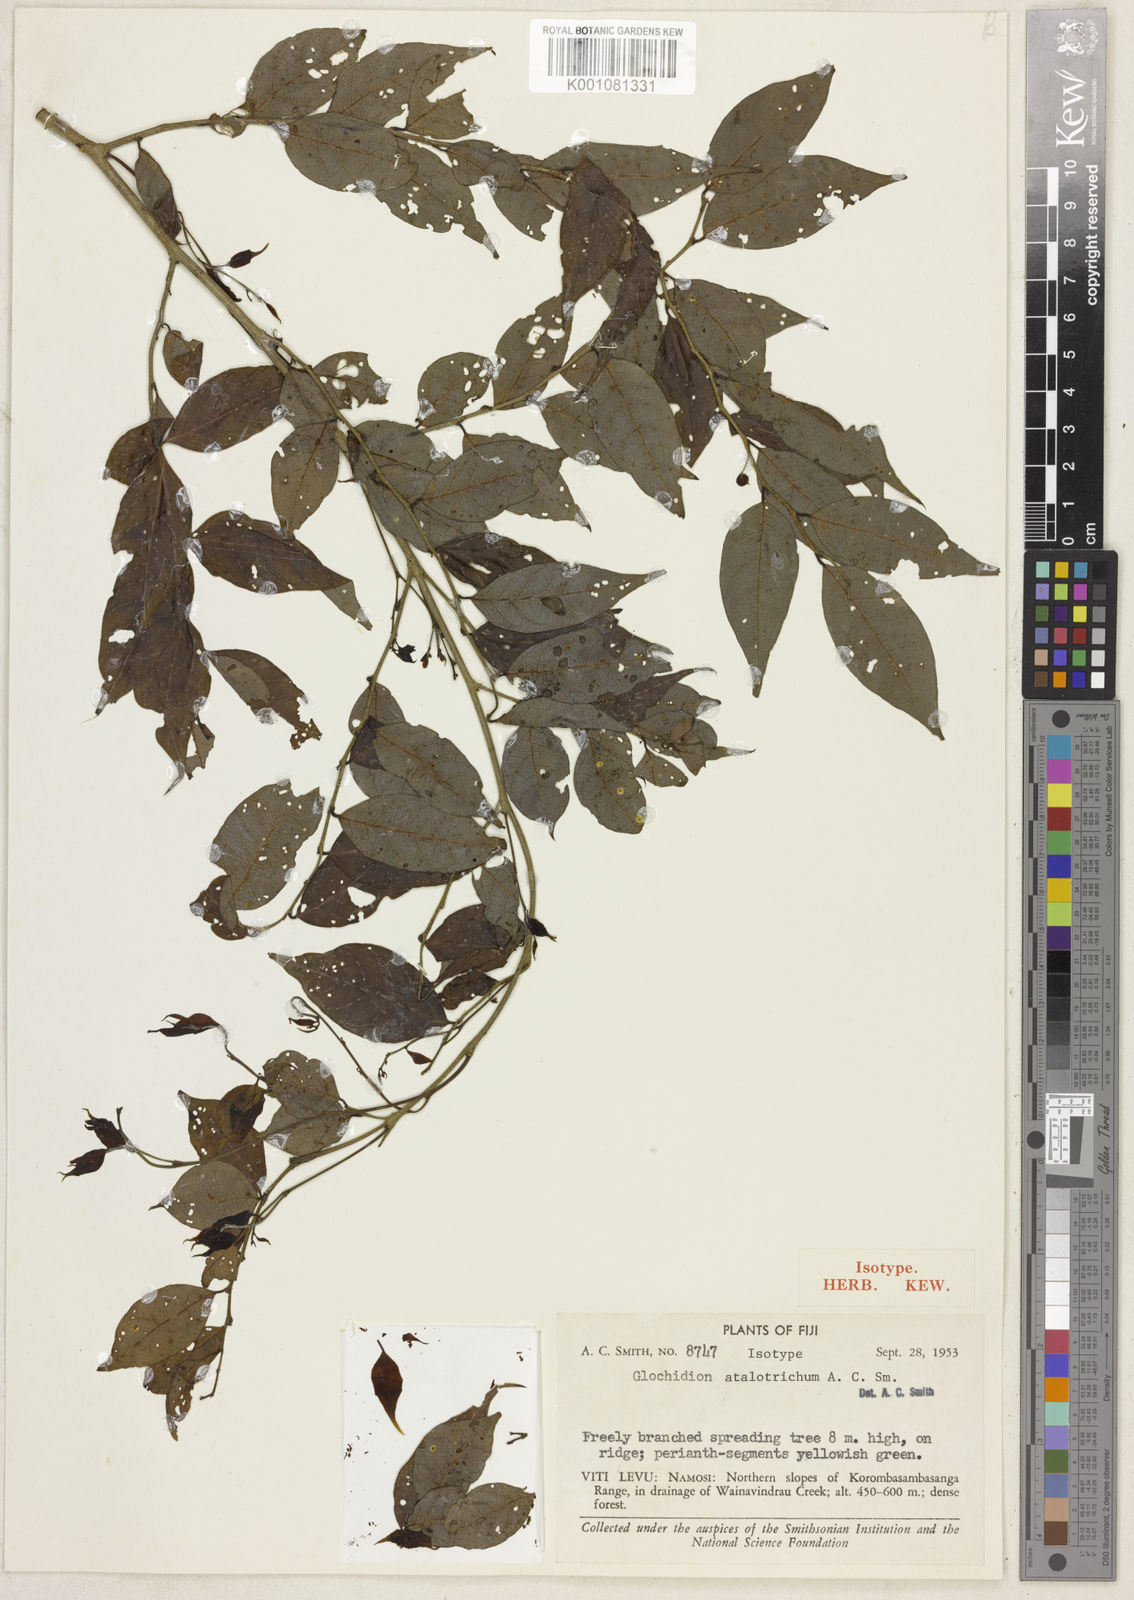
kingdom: Plantae
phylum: Tracheophyta
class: Magnoliopsida
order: Malpighiales
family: Phyllanthaceae
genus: Glochidion
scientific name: Glochidion atalotrichum
